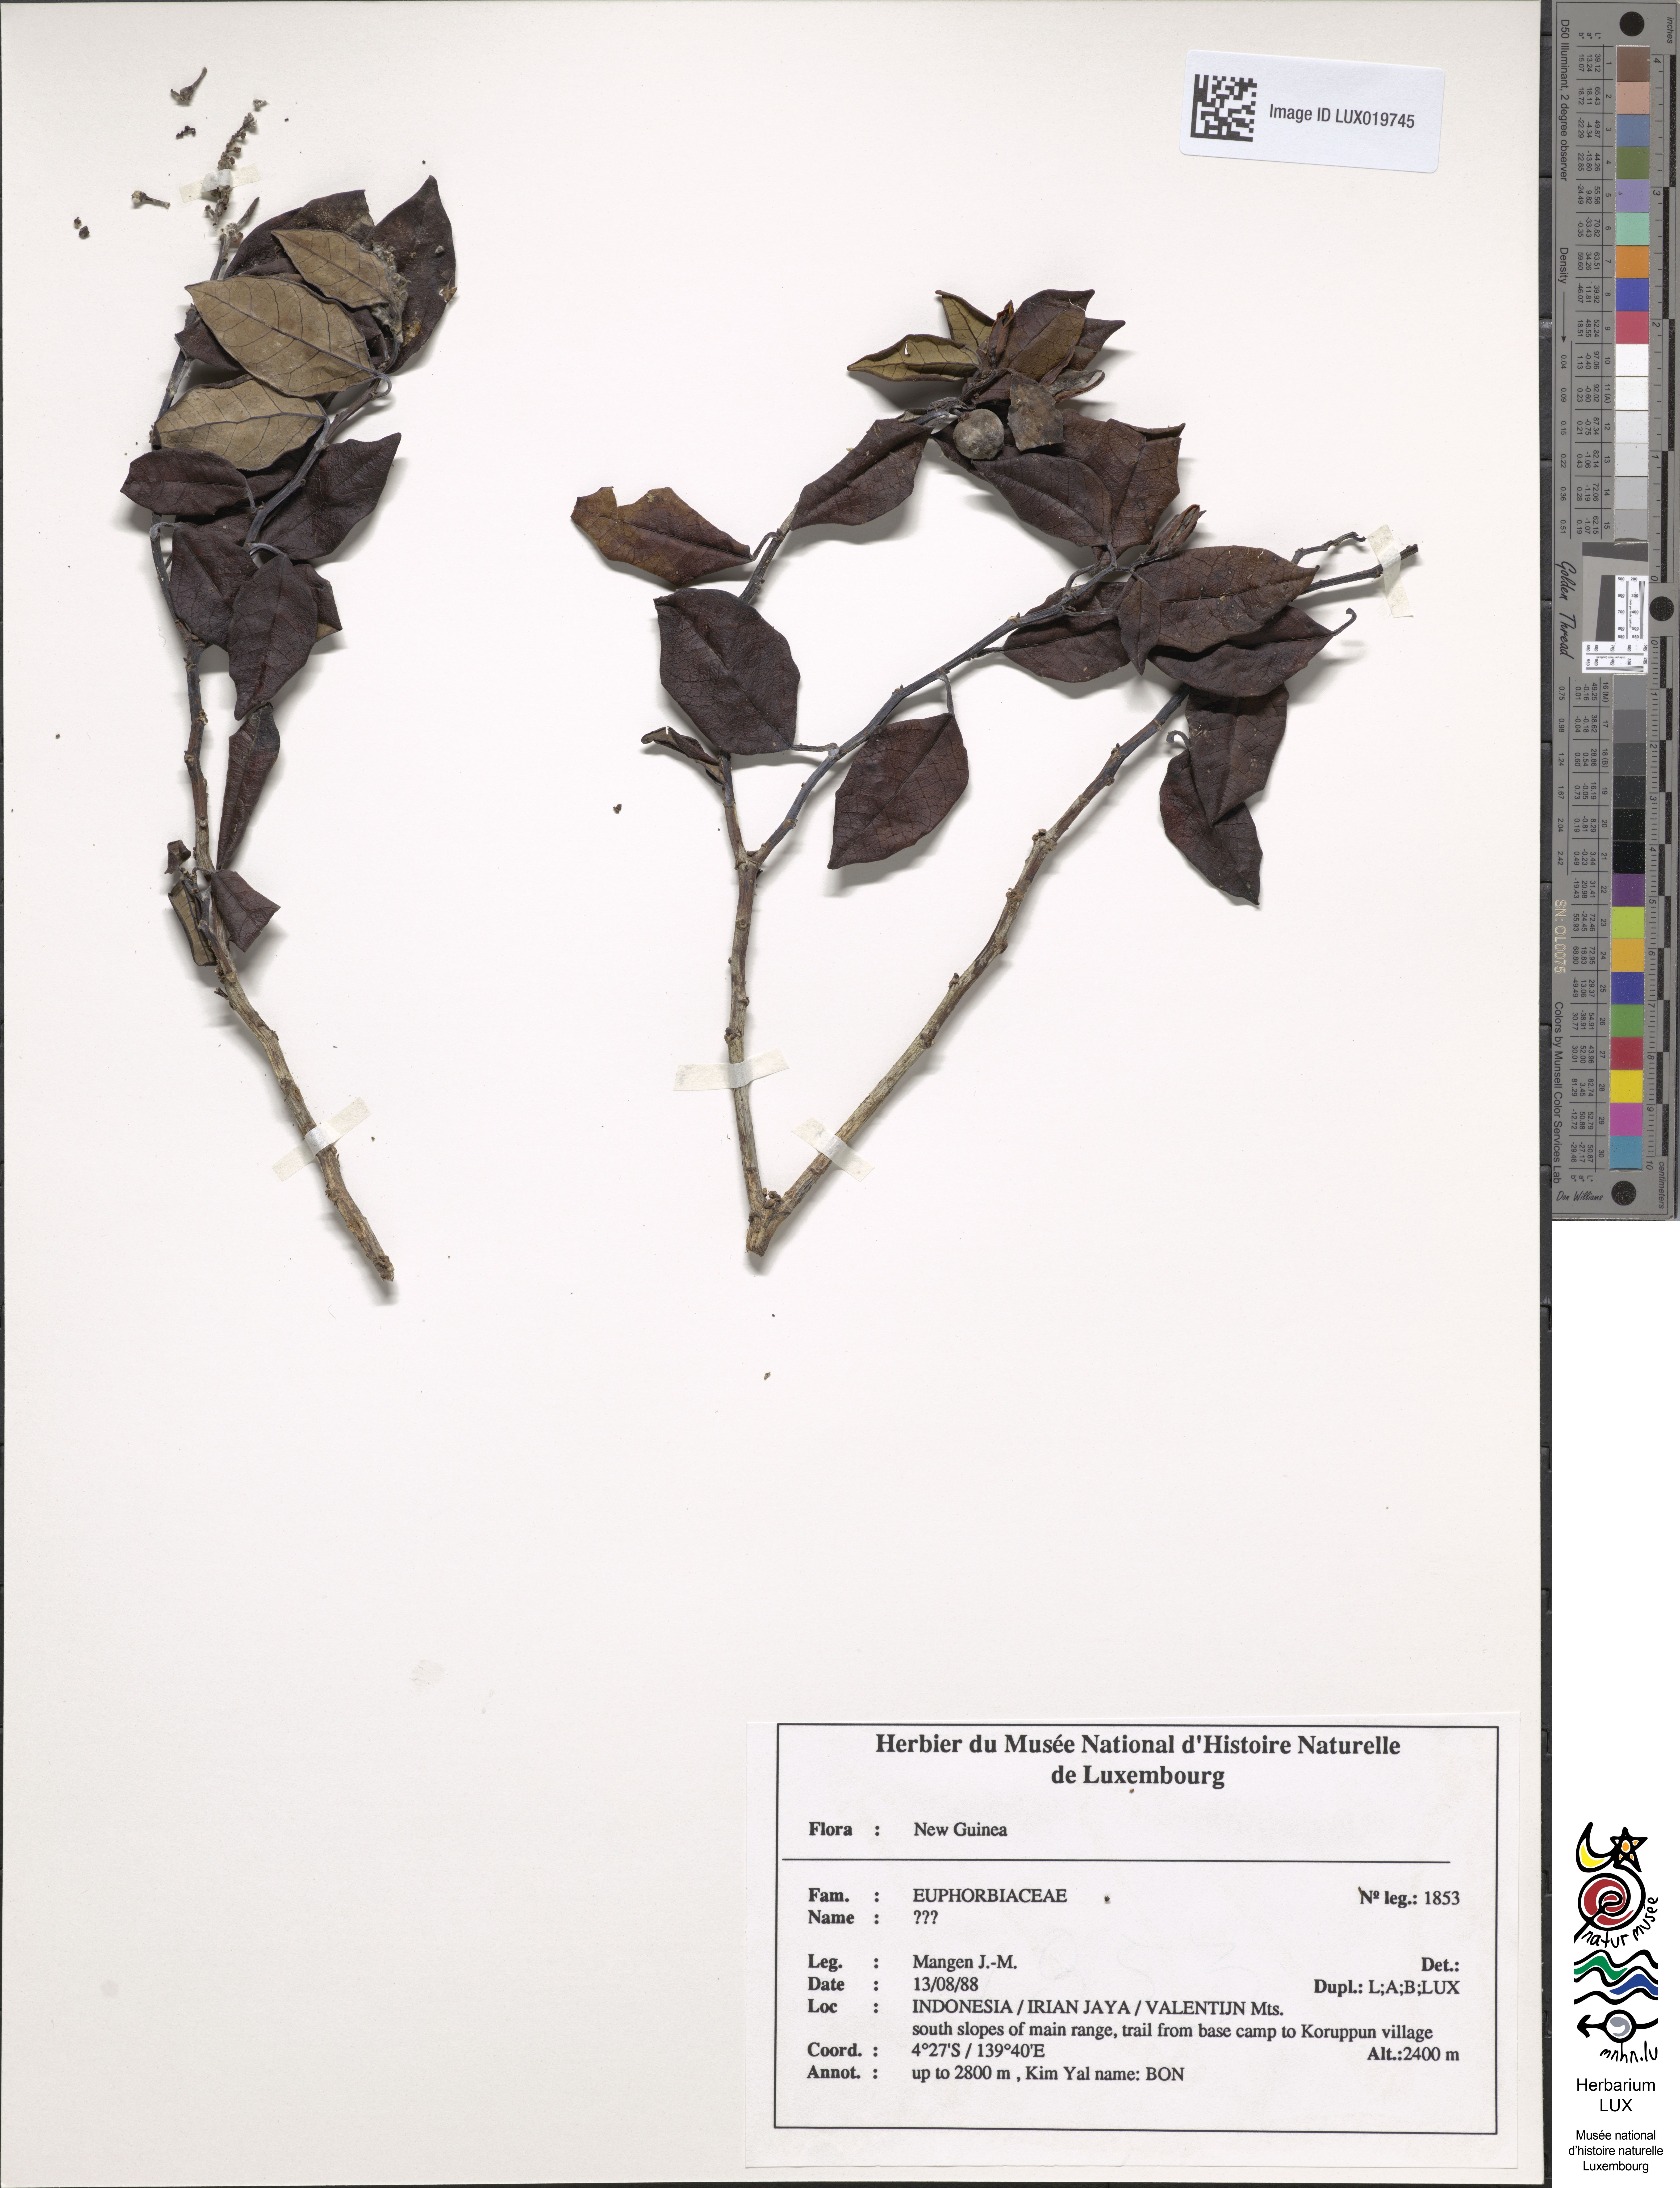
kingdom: Plantae
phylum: Tracheophyta
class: Magnoliopsida
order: Malpighiales
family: Euphorbiaceae
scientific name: Euphorbiaceae
